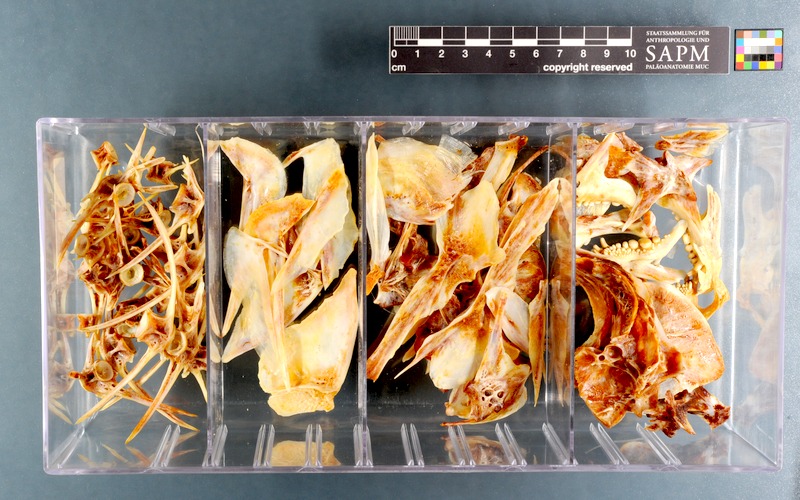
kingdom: Animalia
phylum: Chordata
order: Perciformes
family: Sparidae
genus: Chrysoblephus
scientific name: Chrysoblephus gibbiceps
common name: Red stumpnose
